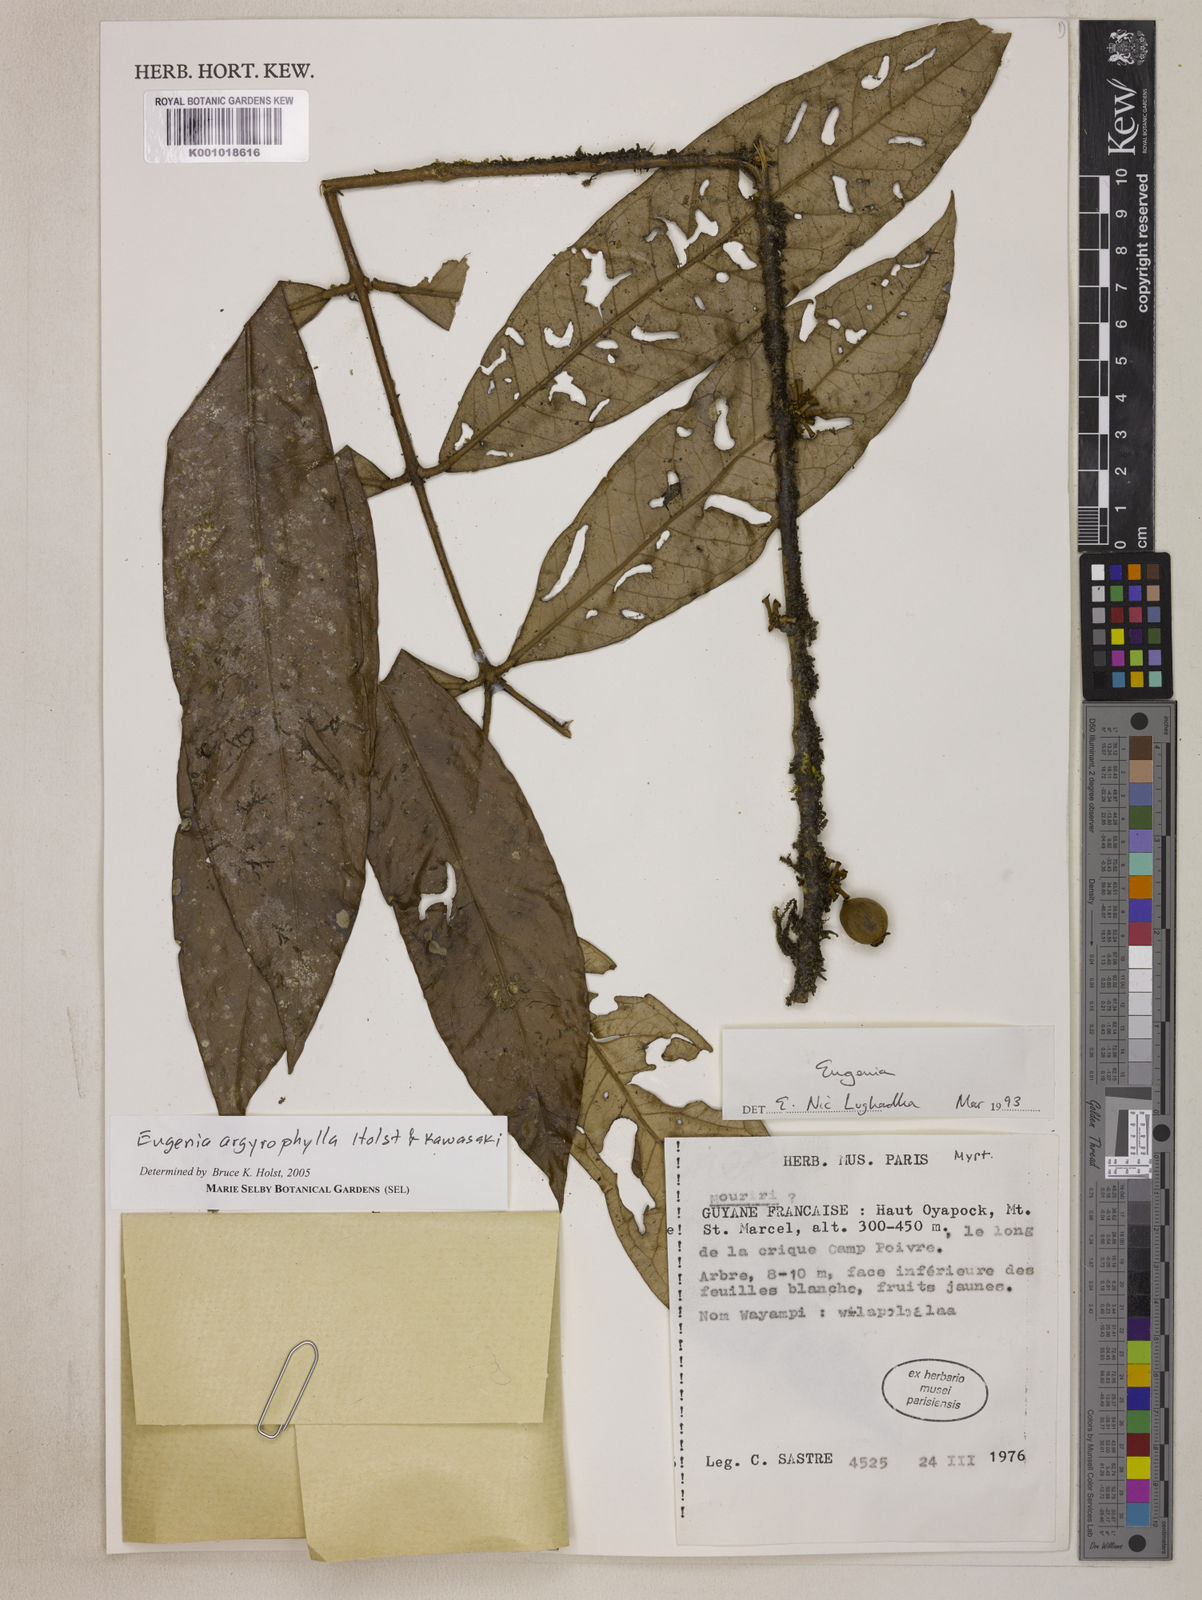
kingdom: Plantae
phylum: Tracheophyta
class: Magnoliopsida
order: Myrtales
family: Myrtaceae
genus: Eugenia
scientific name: Eugenia argyrophylla
